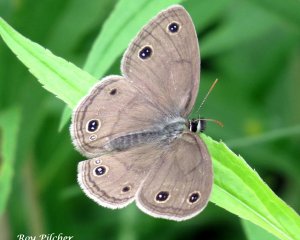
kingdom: Animalia
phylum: Arthropoda
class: Insecta
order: Lepidoptera
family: Nymphalidae
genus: Euptychia
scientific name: Euptychia cymela
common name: Little Wood Satyr
